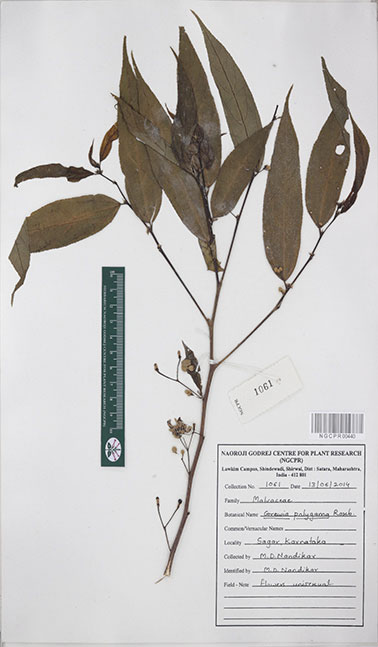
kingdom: Plantae
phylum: Tracheophyta
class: Magnoliopsida
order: Malvales
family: Malvaceae
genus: Grewia
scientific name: Grewia excelsa
